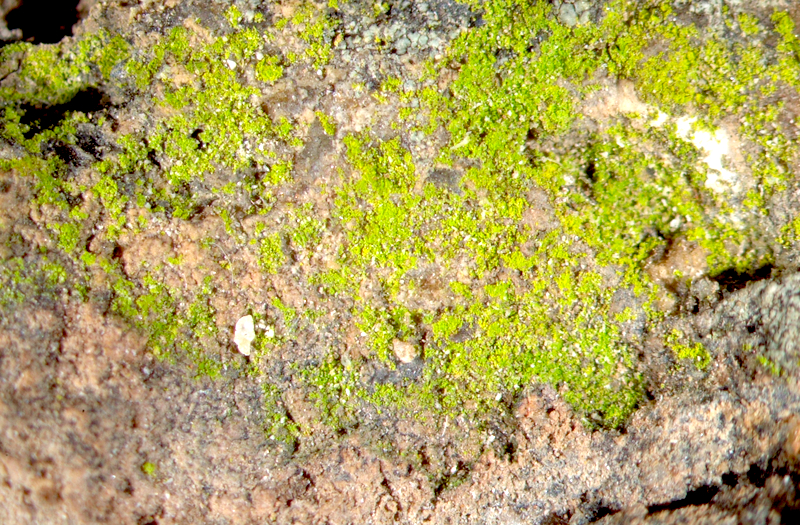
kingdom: Fungi
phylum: Ascomycota
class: Arthoniomycetes
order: Arthoniales
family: Chrysotrichaceae
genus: Chrysothrix
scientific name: Chrysothrix chlorina
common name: Chlorine dust lichen
